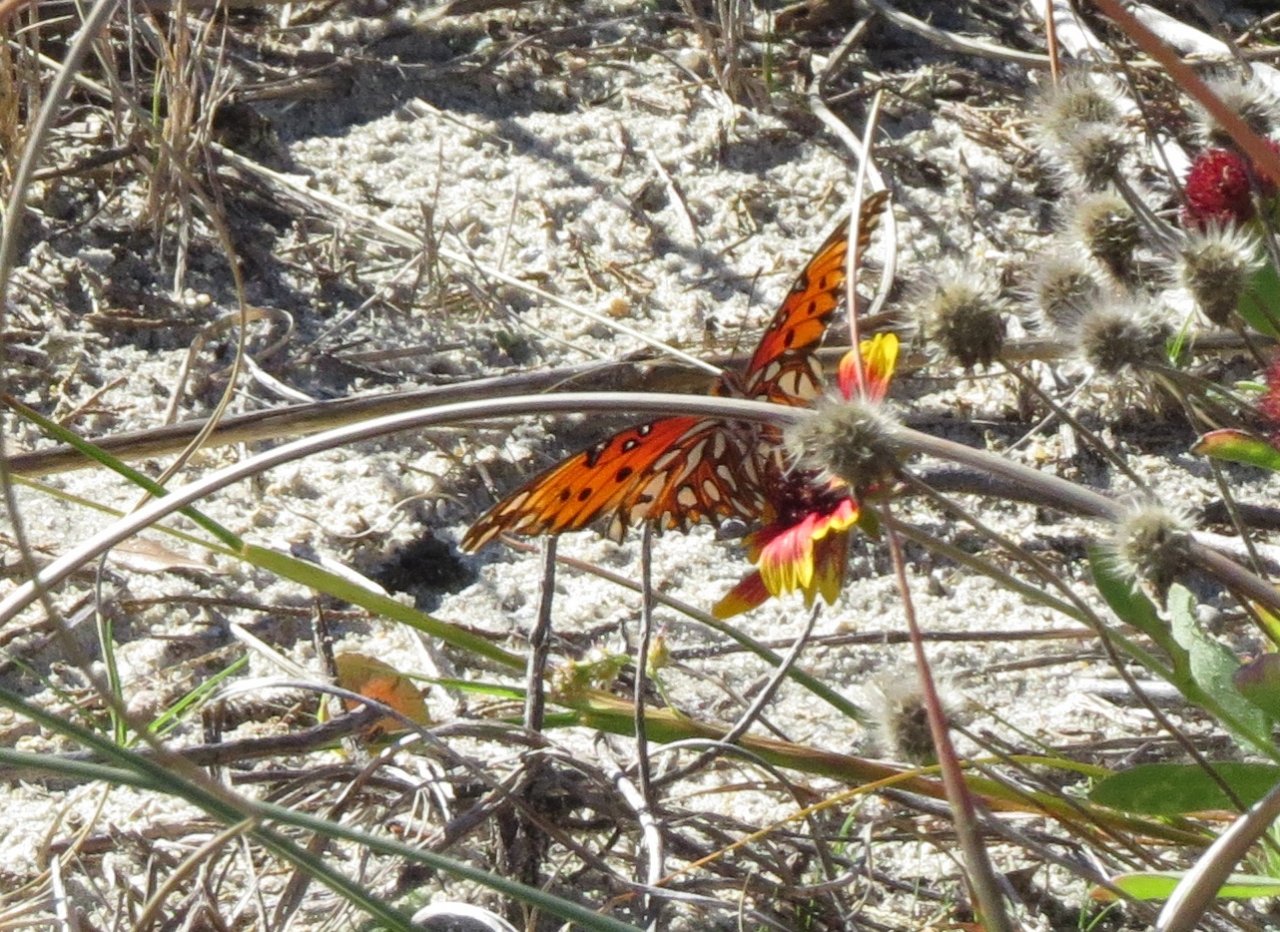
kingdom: Animalia
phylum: Arthropoda
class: Insecta
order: Lepidoptera
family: Nymphalidae
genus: Dione
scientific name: Dione vanillae
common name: Gulf Fritillary
